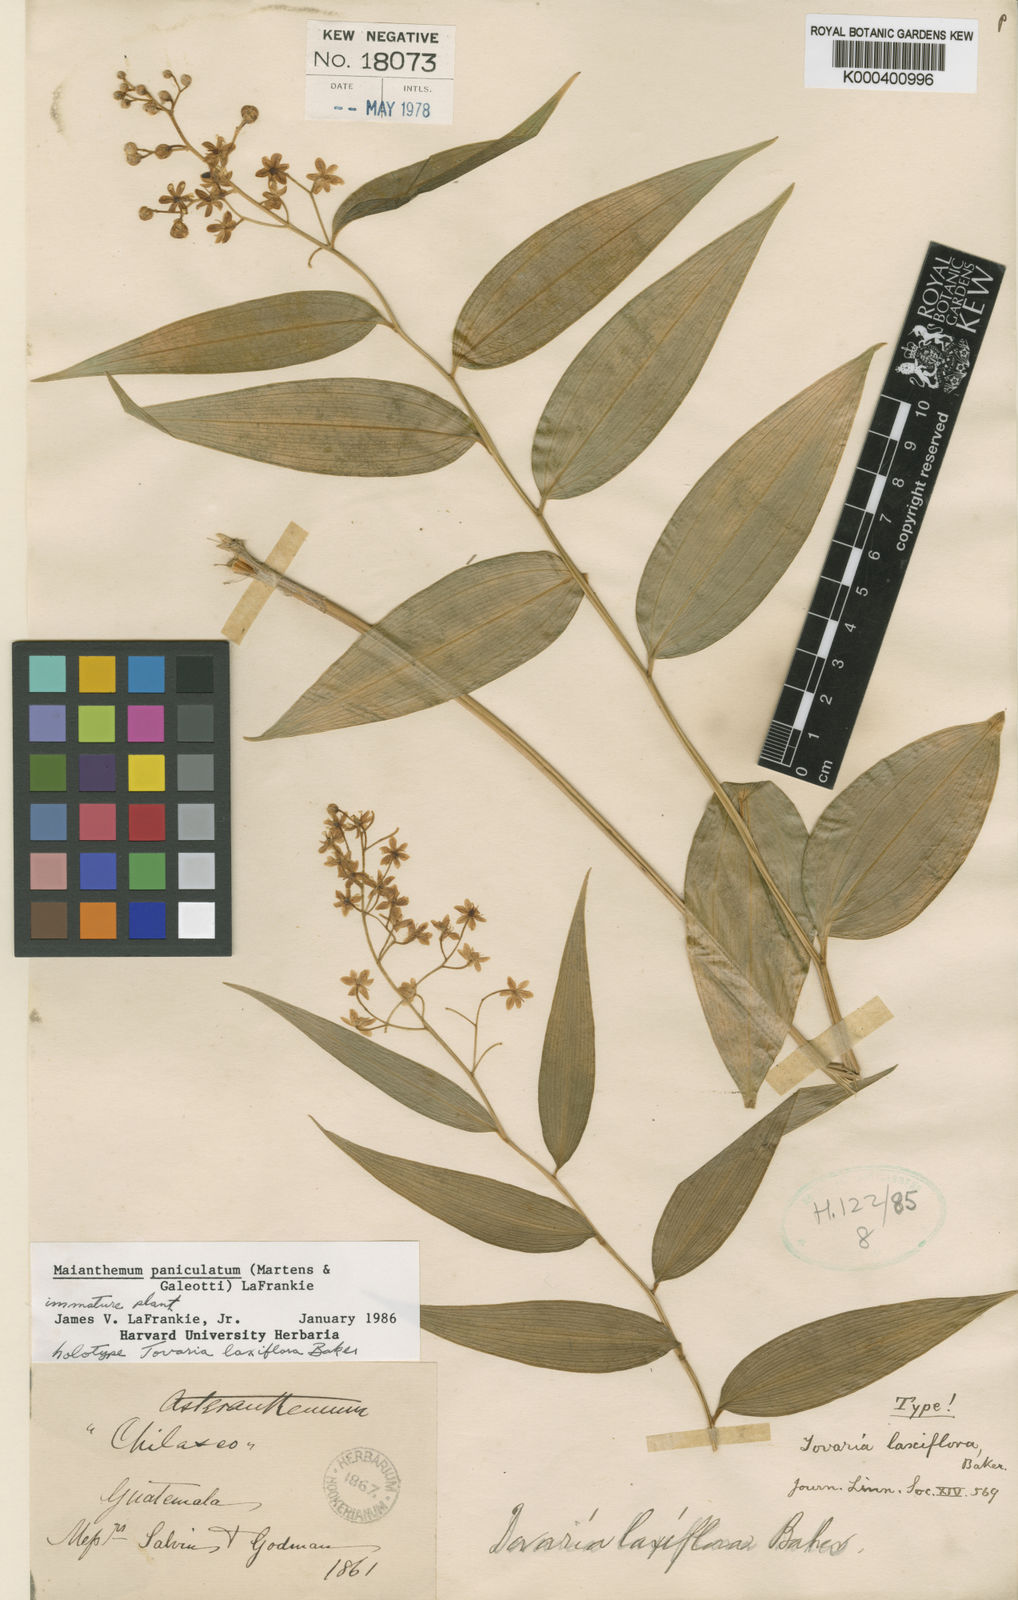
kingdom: Plantae
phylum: Tracheophyta
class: Liliopsida
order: Asparagales
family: Asparagaceae
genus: Maianthemum
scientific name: Maianthemum paniculatum
